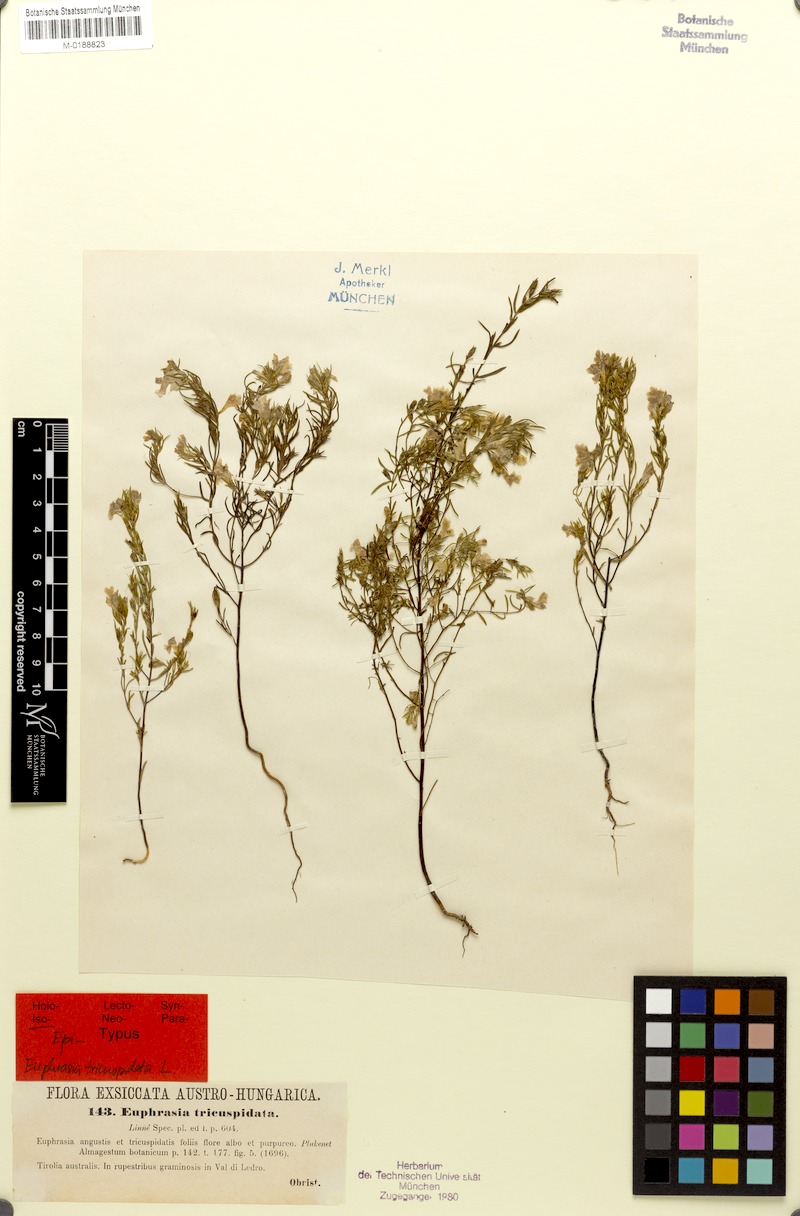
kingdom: Plantae
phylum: Tracheophyta
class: Magnoliopsida
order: Lamiales
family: Orobanchaceae
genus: Euphrasia
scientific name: Euphrasia tricuspidata
